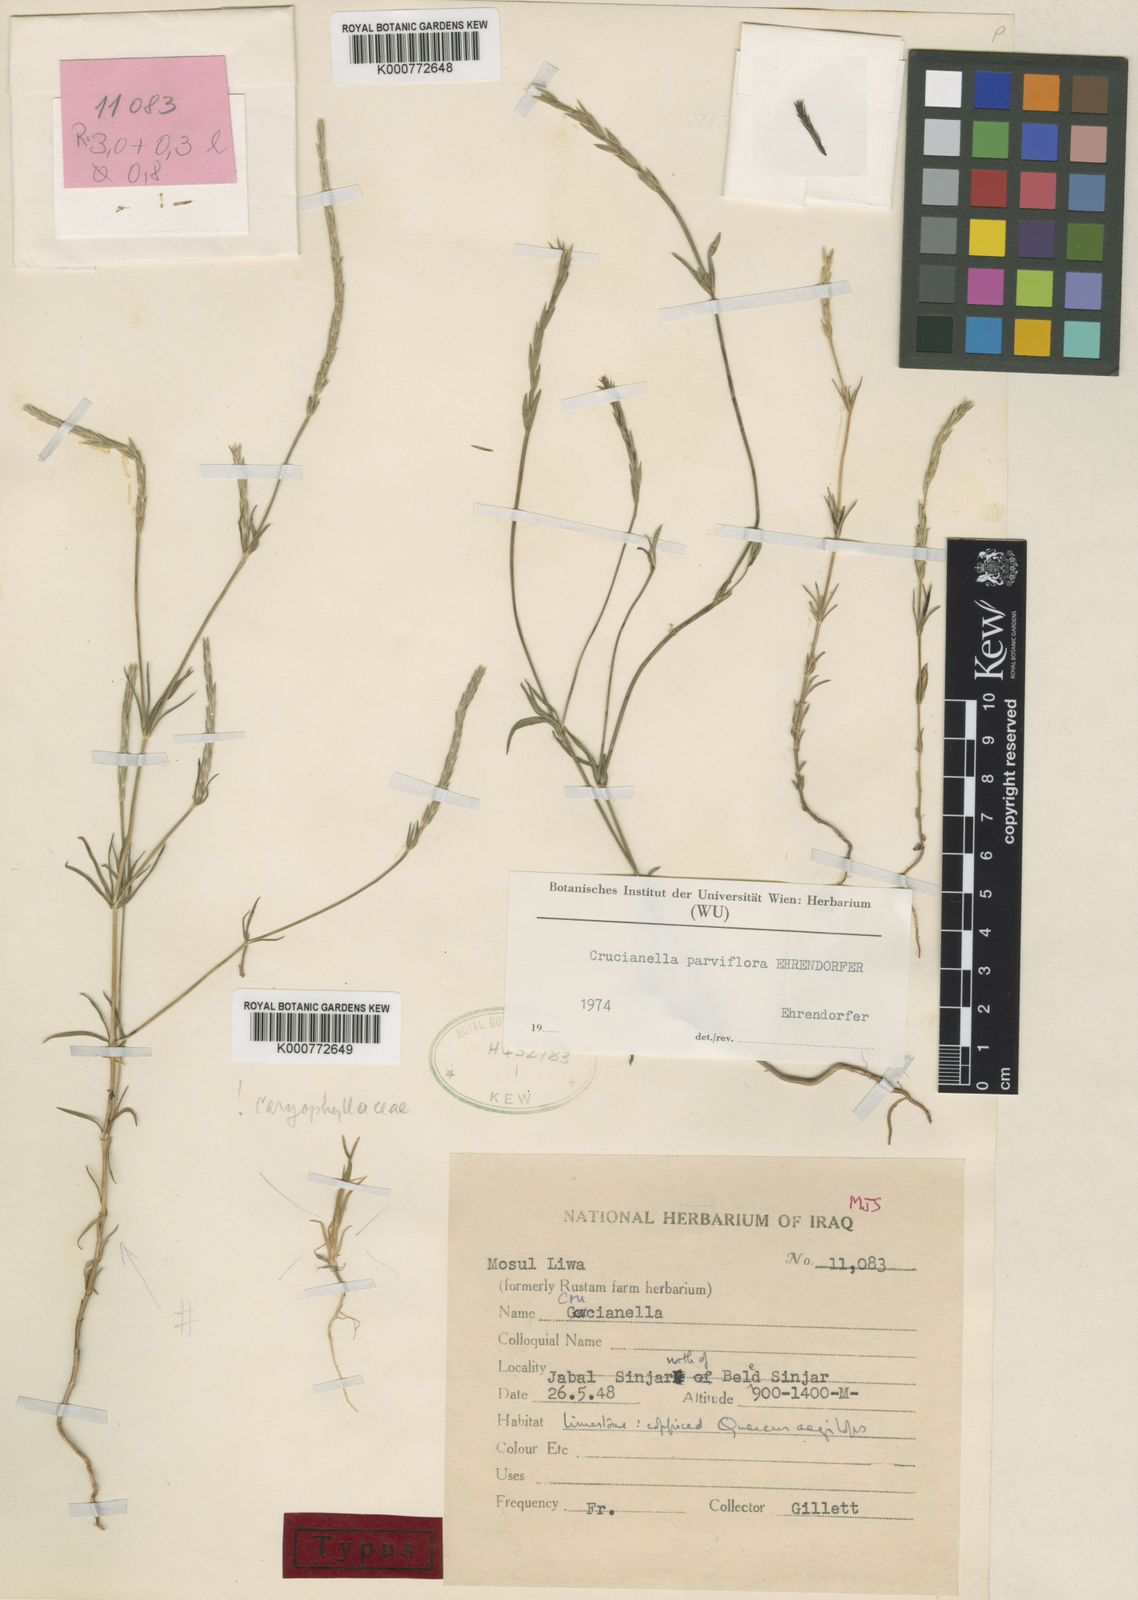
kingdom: Plantae
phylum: Tracheophyta
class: Magnoliopsida
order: Gentianales
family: Rubiaceae
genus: Crucianella
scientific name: Crucianella parviflora
